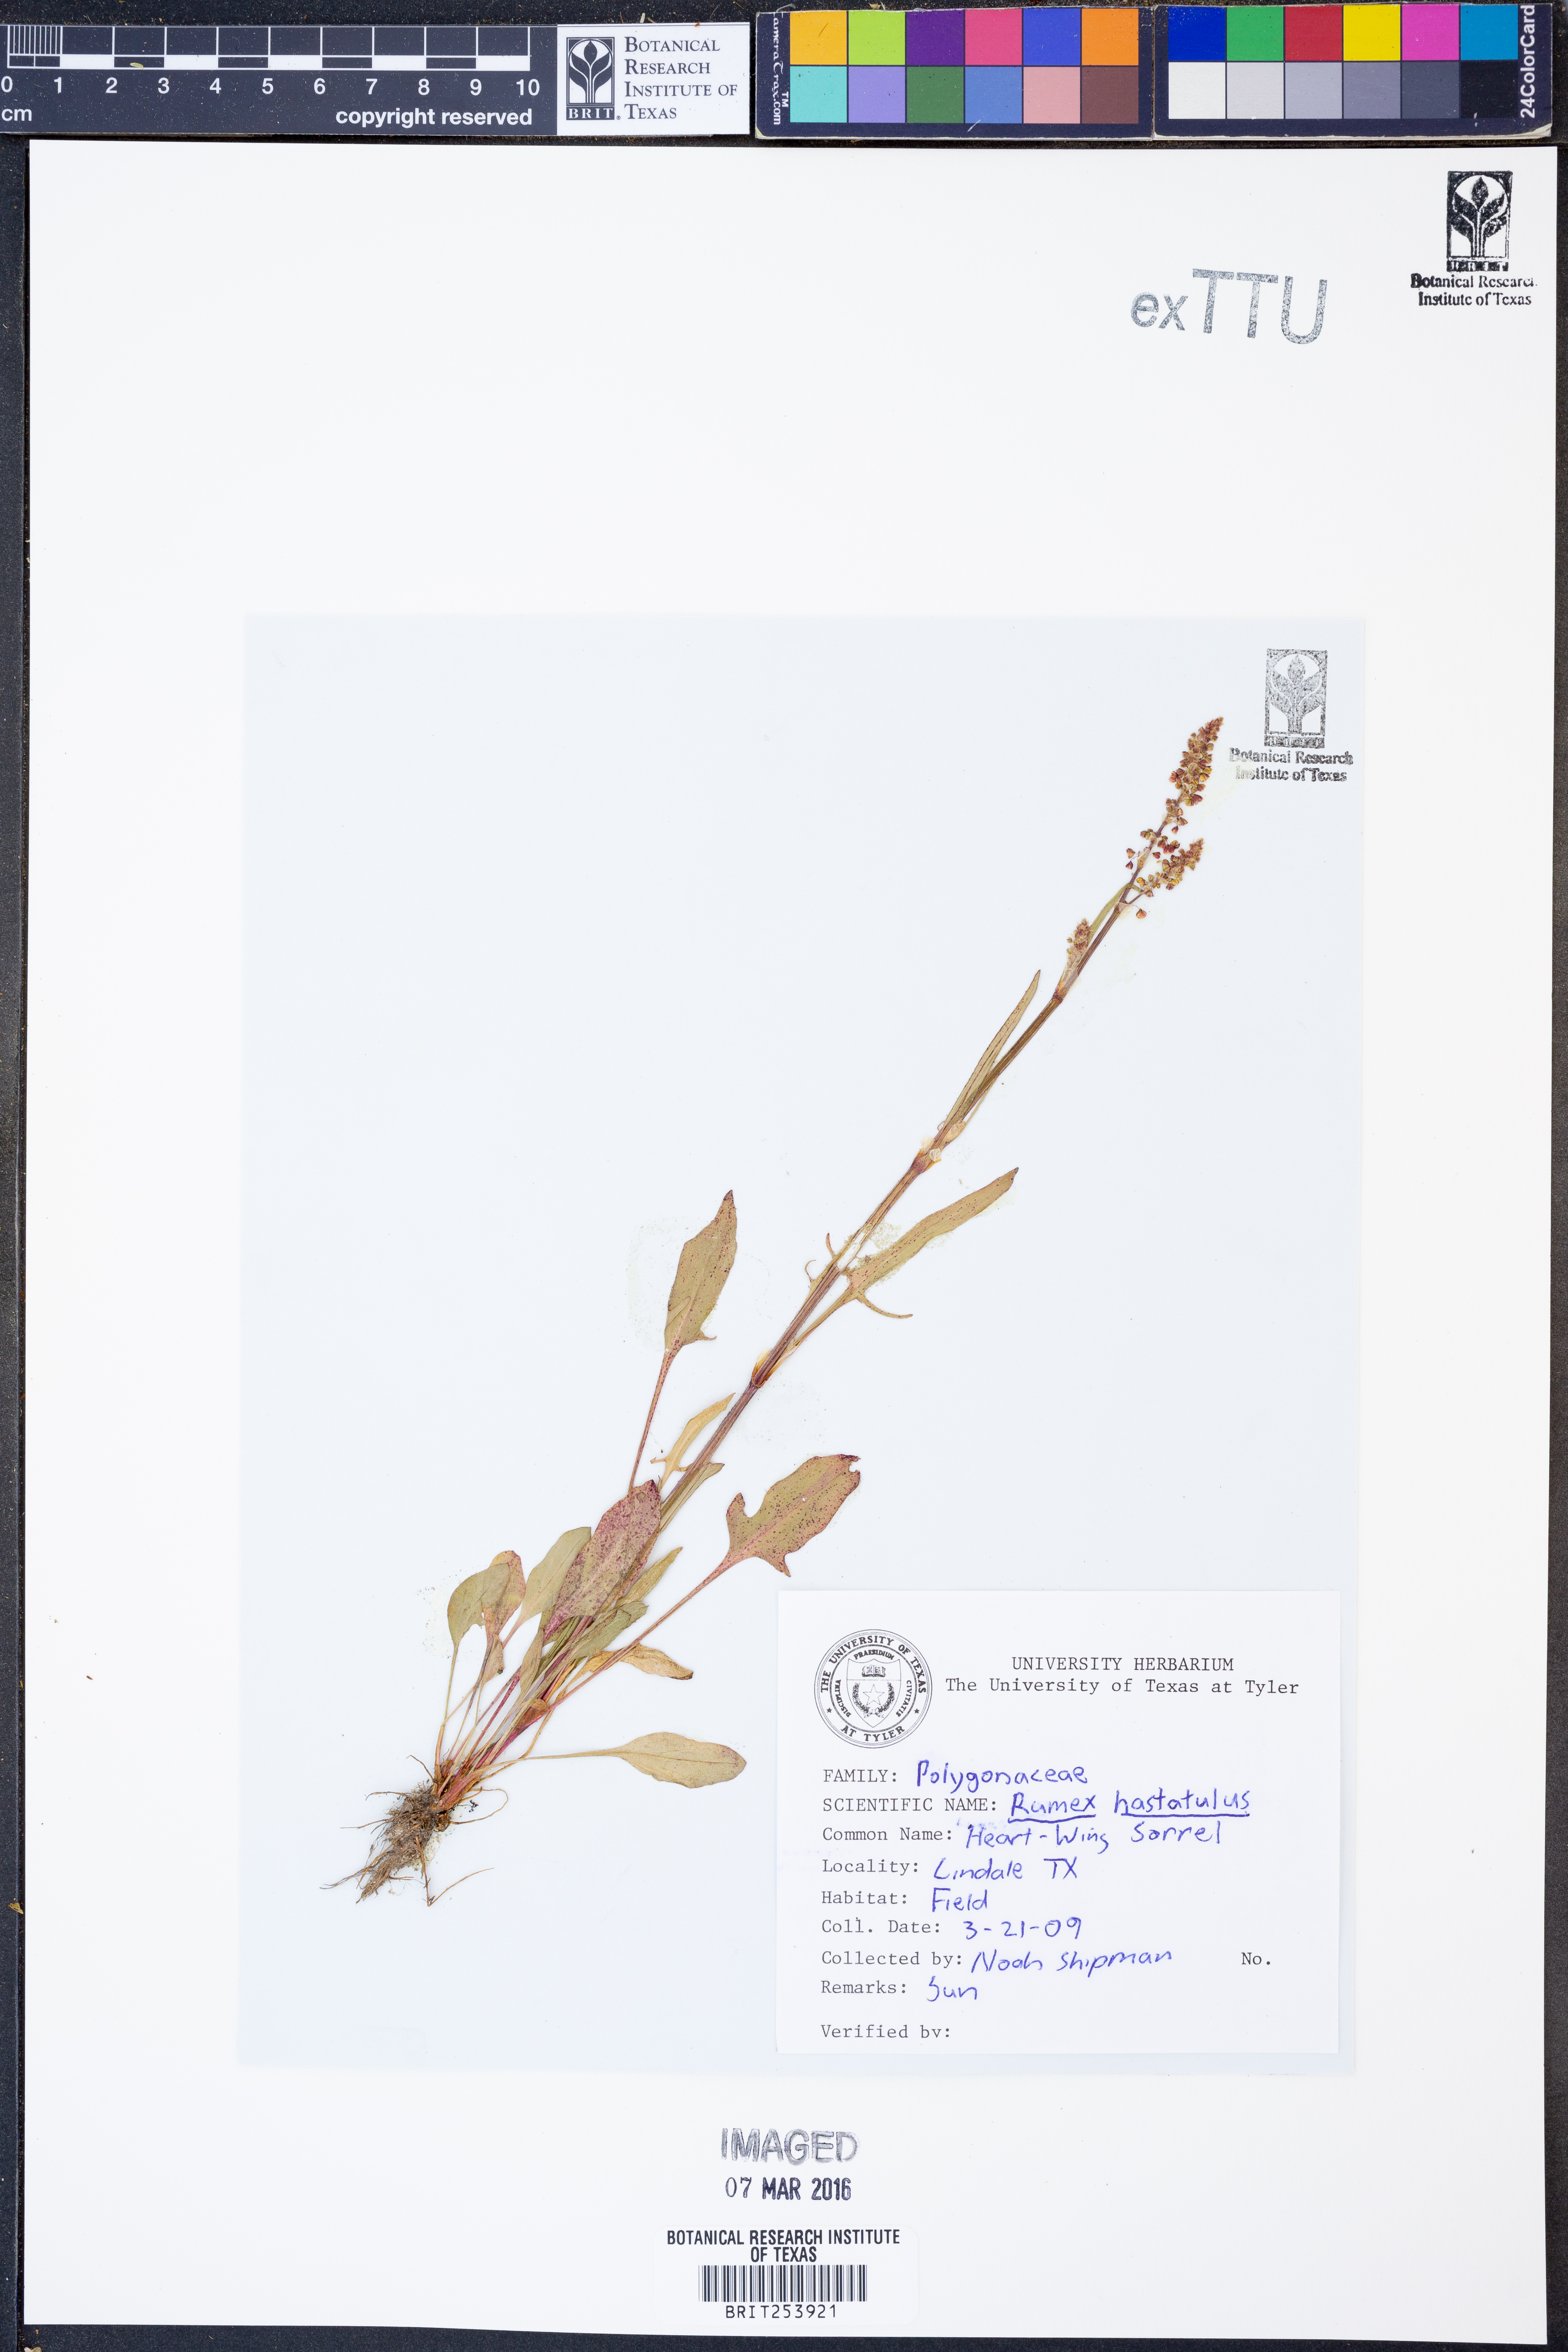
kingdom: Plantae
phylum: Tracheophyta
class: Magnoliopsida
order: Caryophyllales
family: Polygonaceae
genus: Rumex
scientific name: Rumex hastatulus
